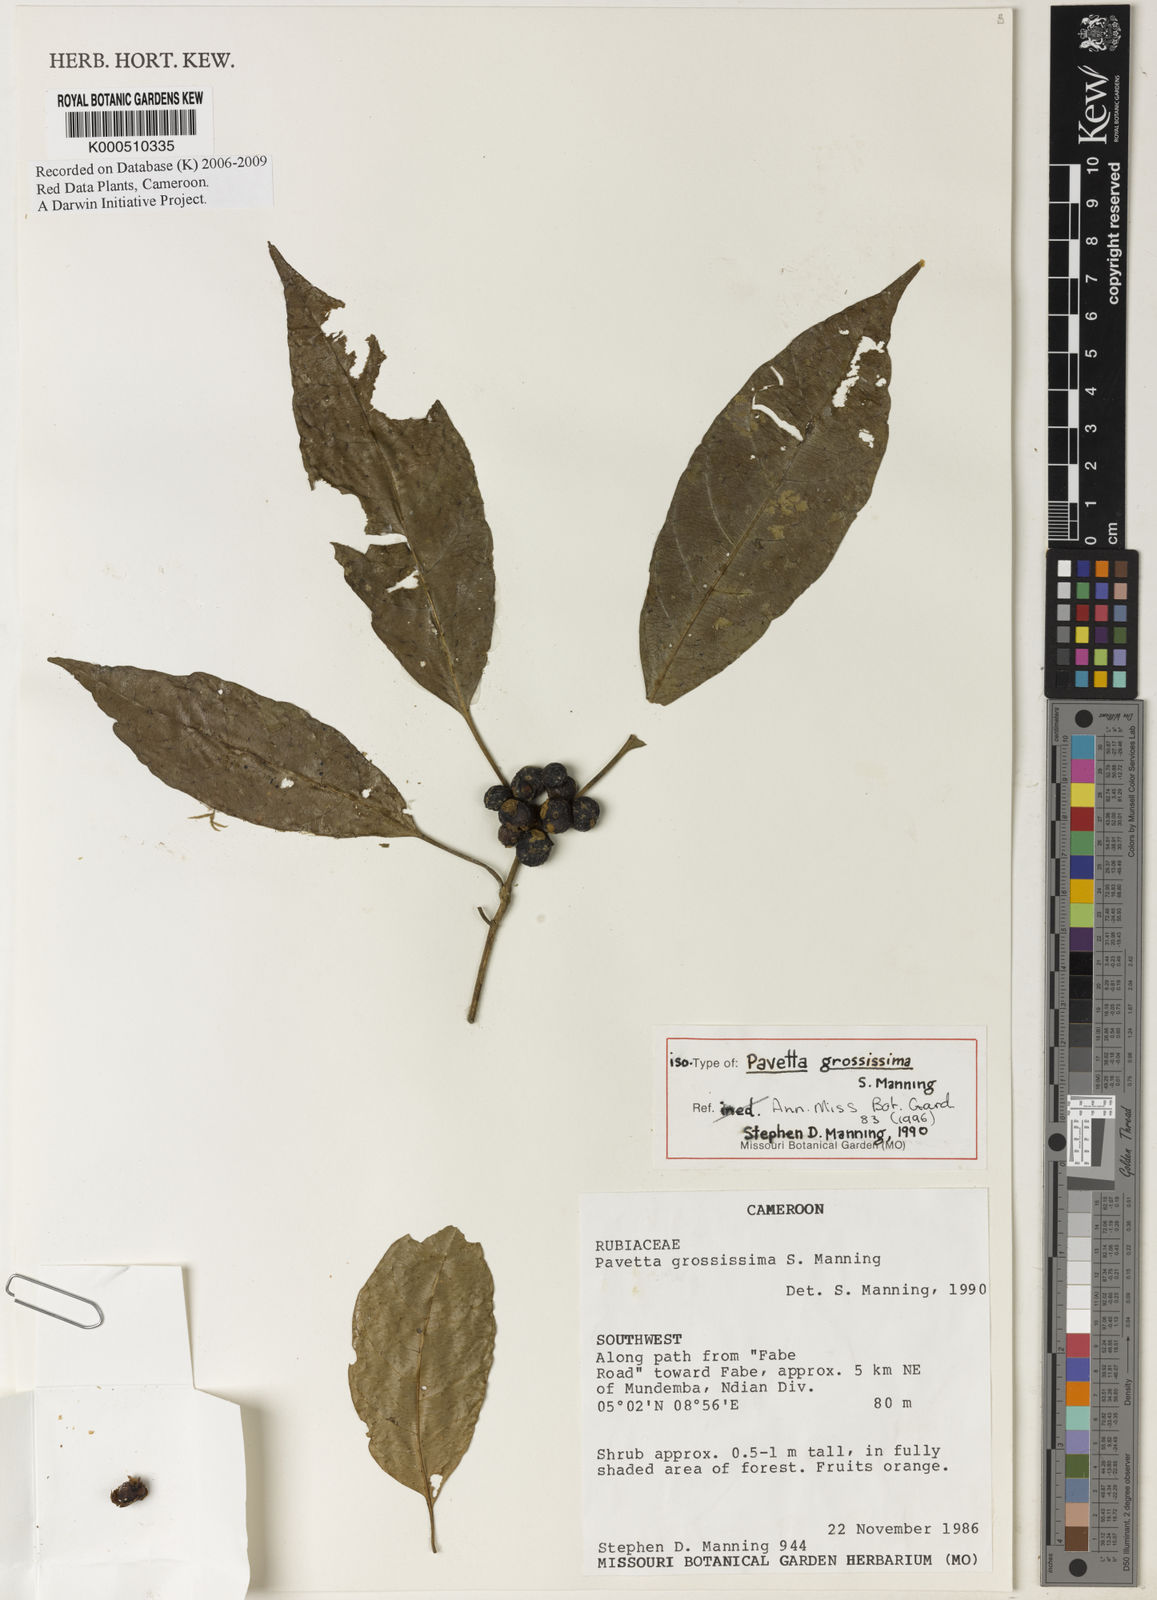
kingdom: Plantae
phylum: Tracheophyta
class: Magnoliopsida
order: Gentianales
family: Rubiaceae
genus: Pavetta
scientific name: Pavetta grossissima
